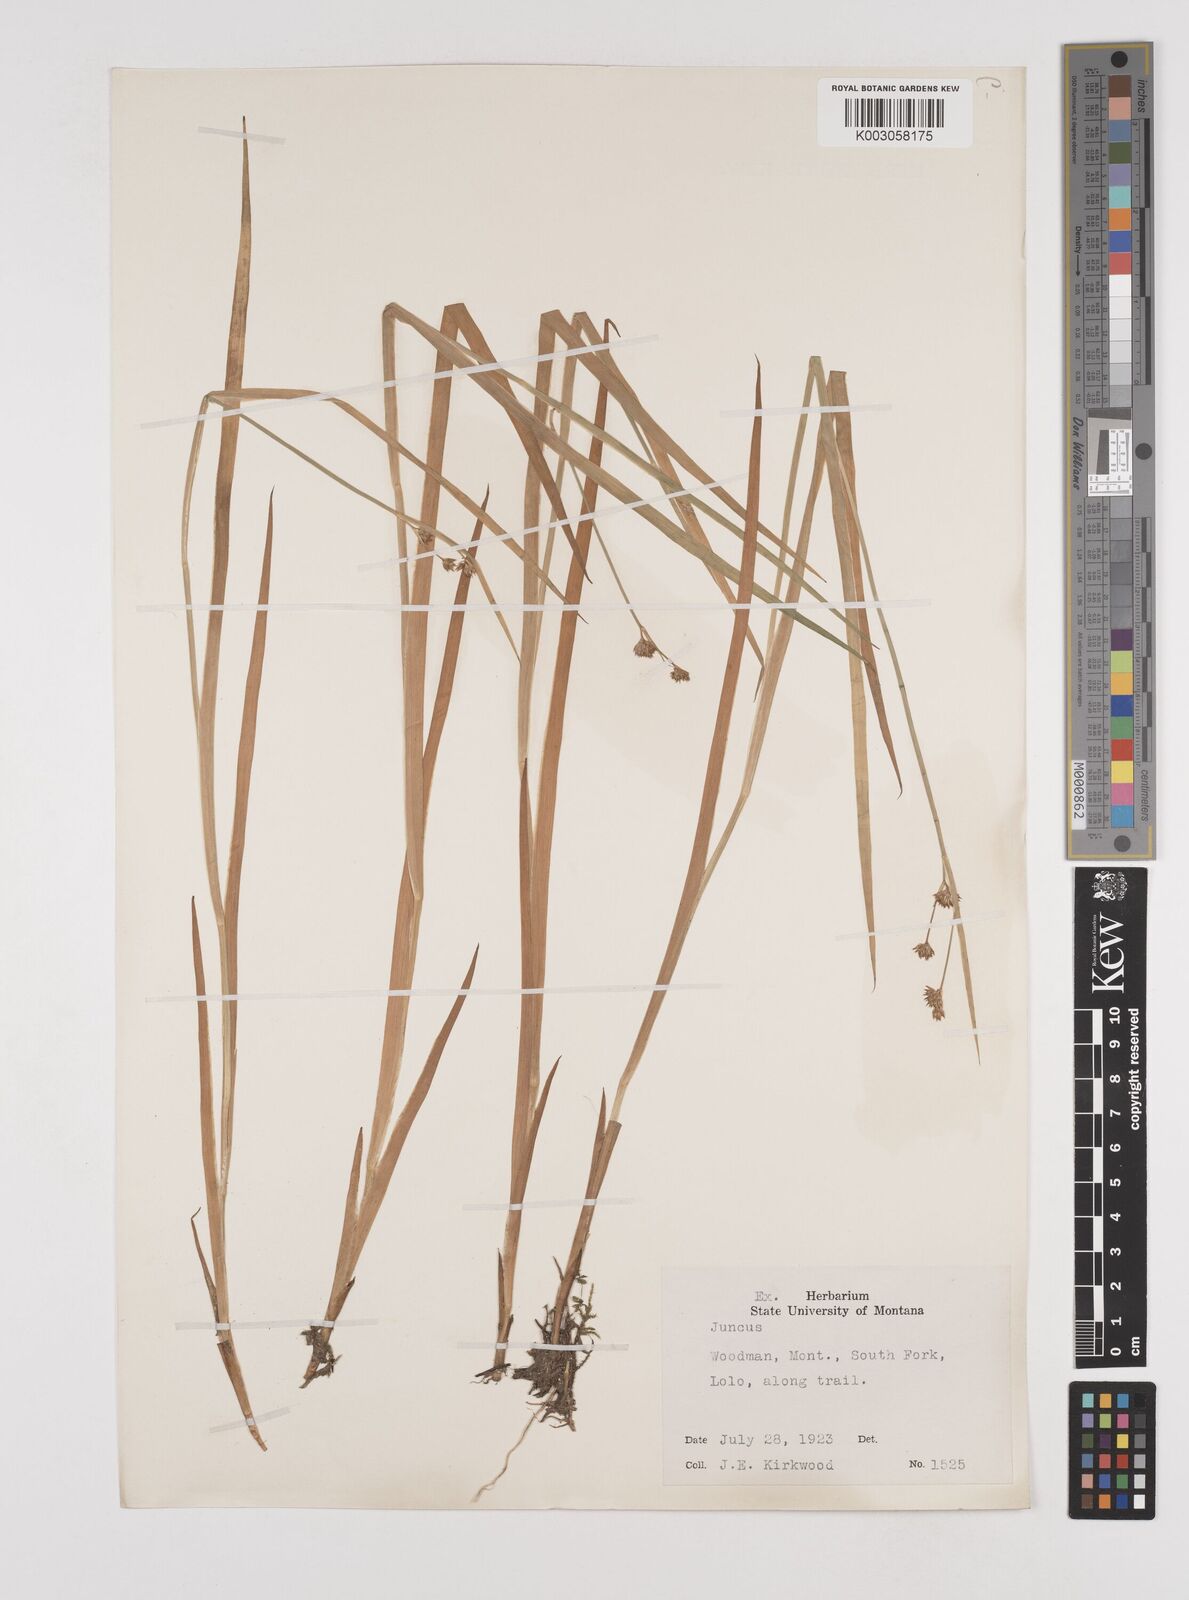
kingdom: Plantae
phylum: Tracheophyta
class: Liliopsida
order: Poales
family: Juncaceae
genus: Juncus
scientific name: Juncus
